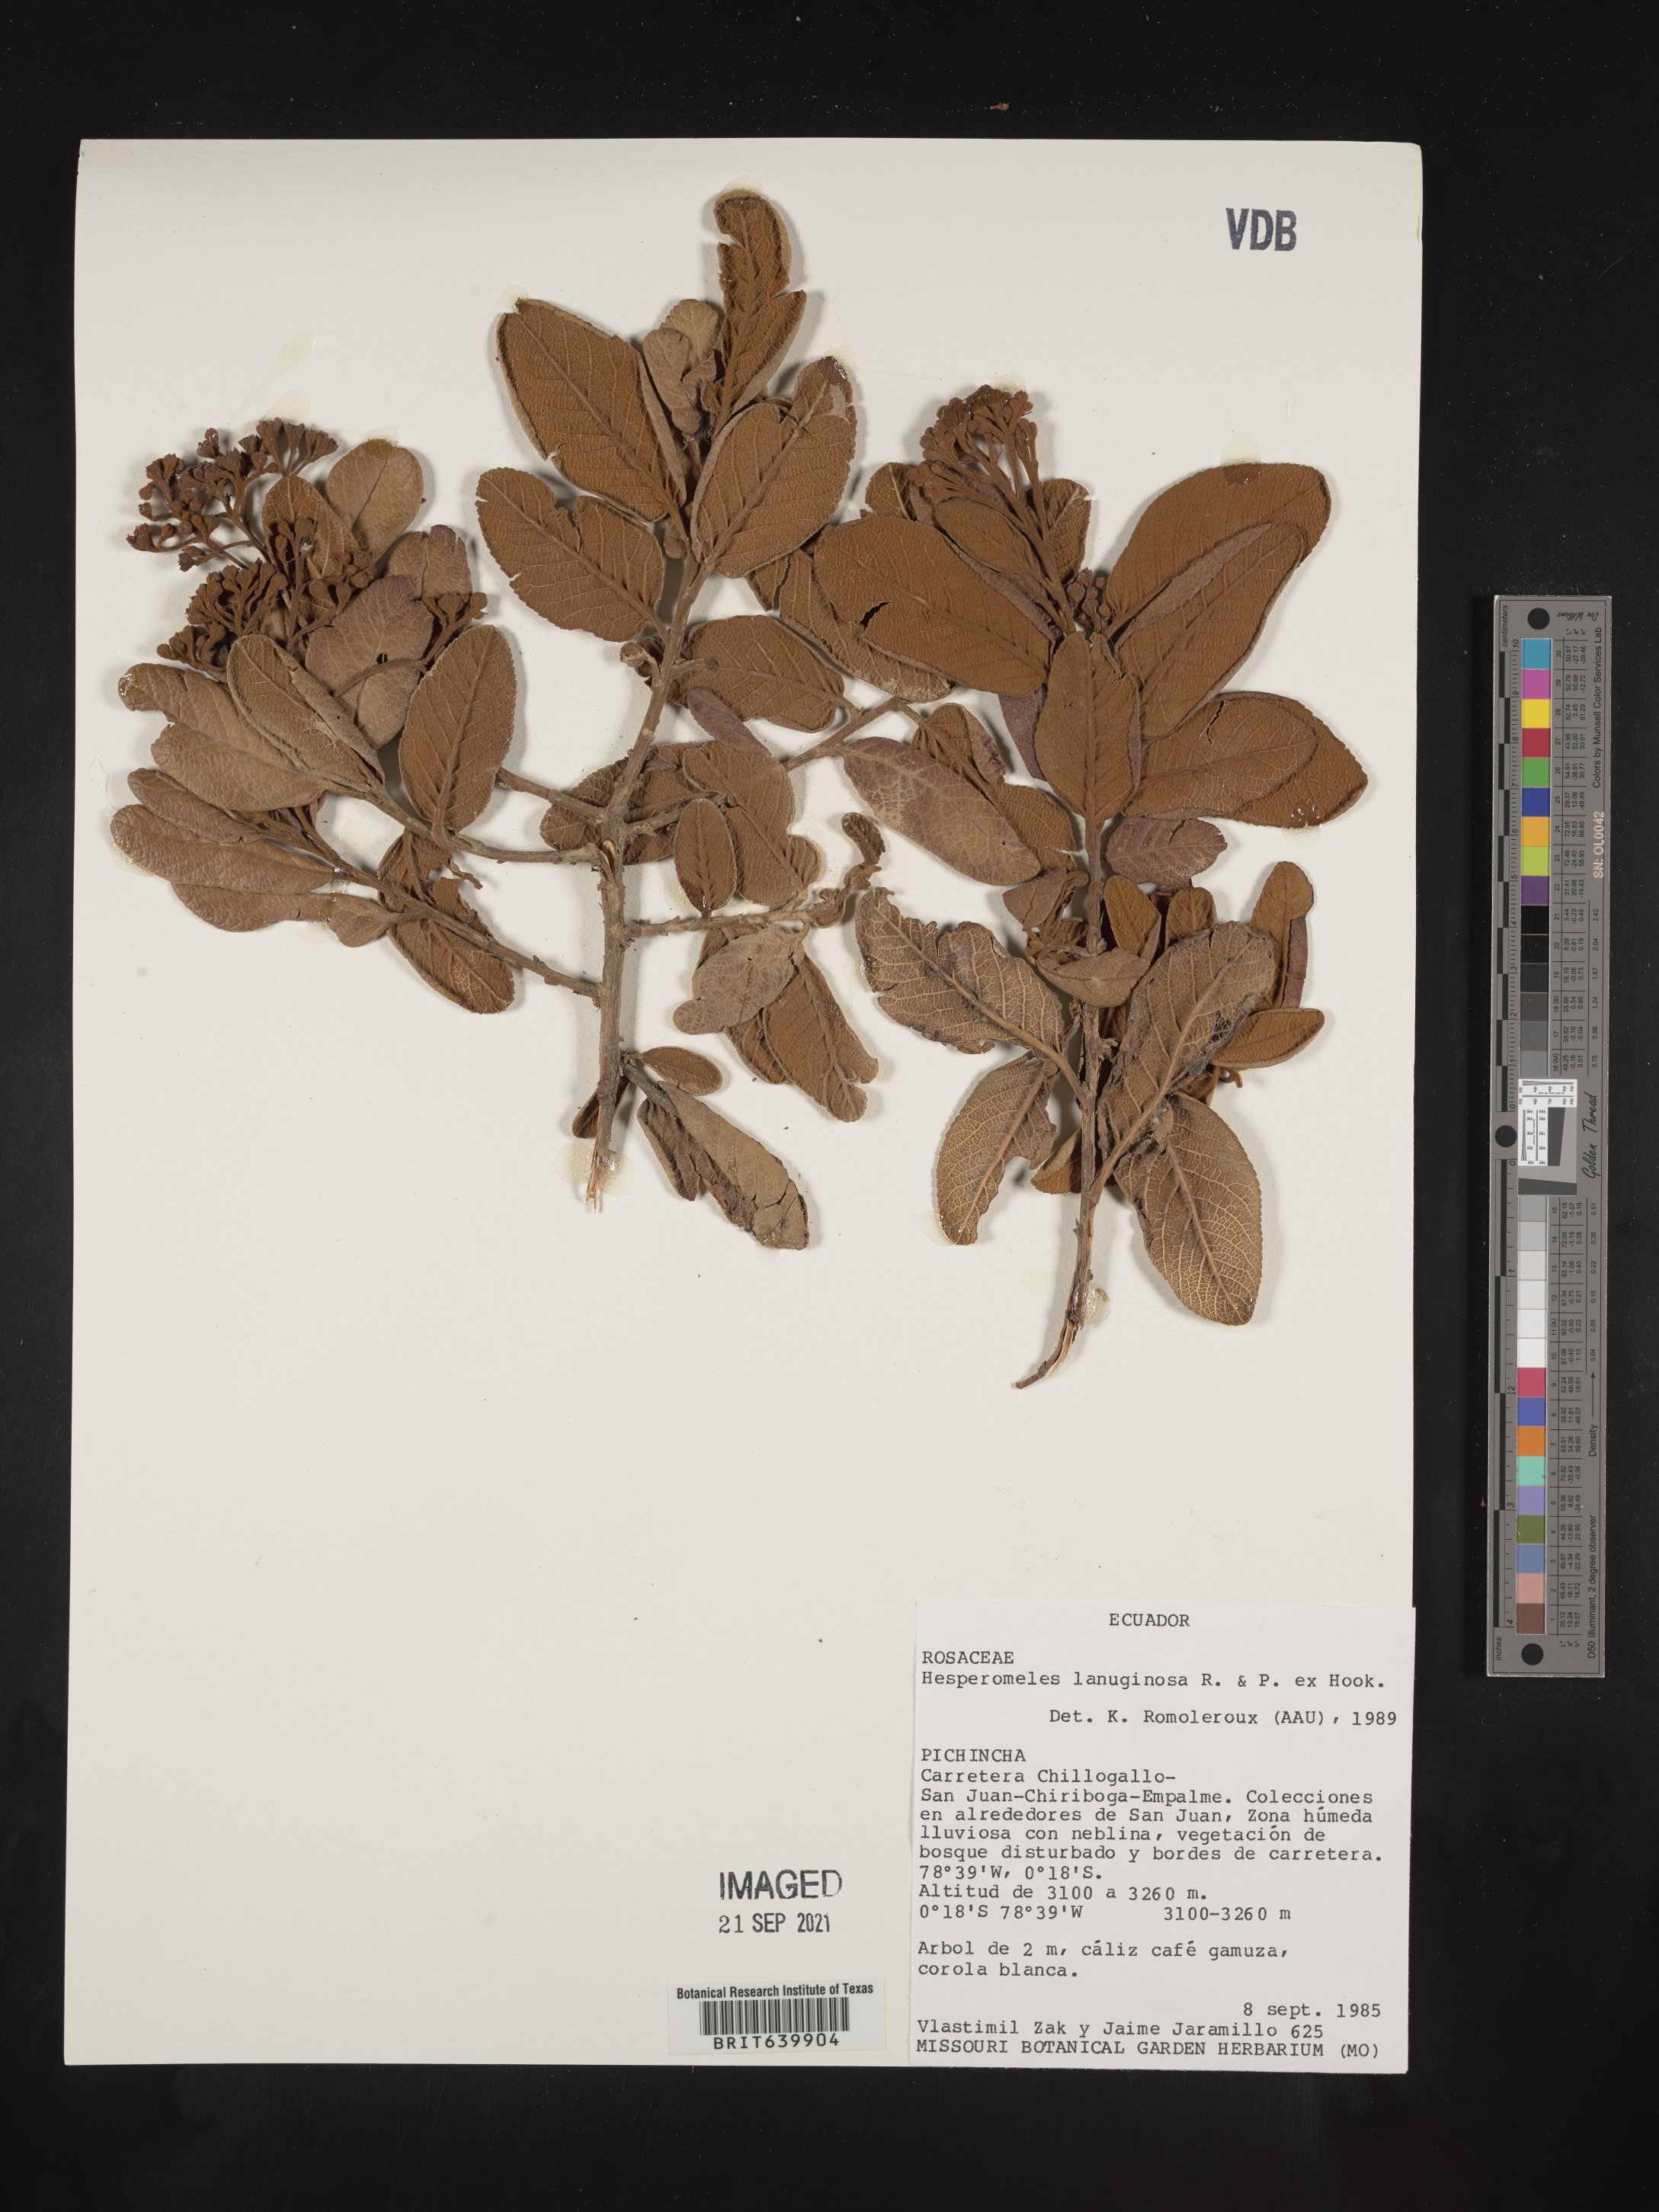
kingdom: Plantae
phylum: Tracheophyta
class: Magnoliopsida
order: Rosales
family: Rosaceae
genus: Hesperomeles
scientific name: Hesperomeles
